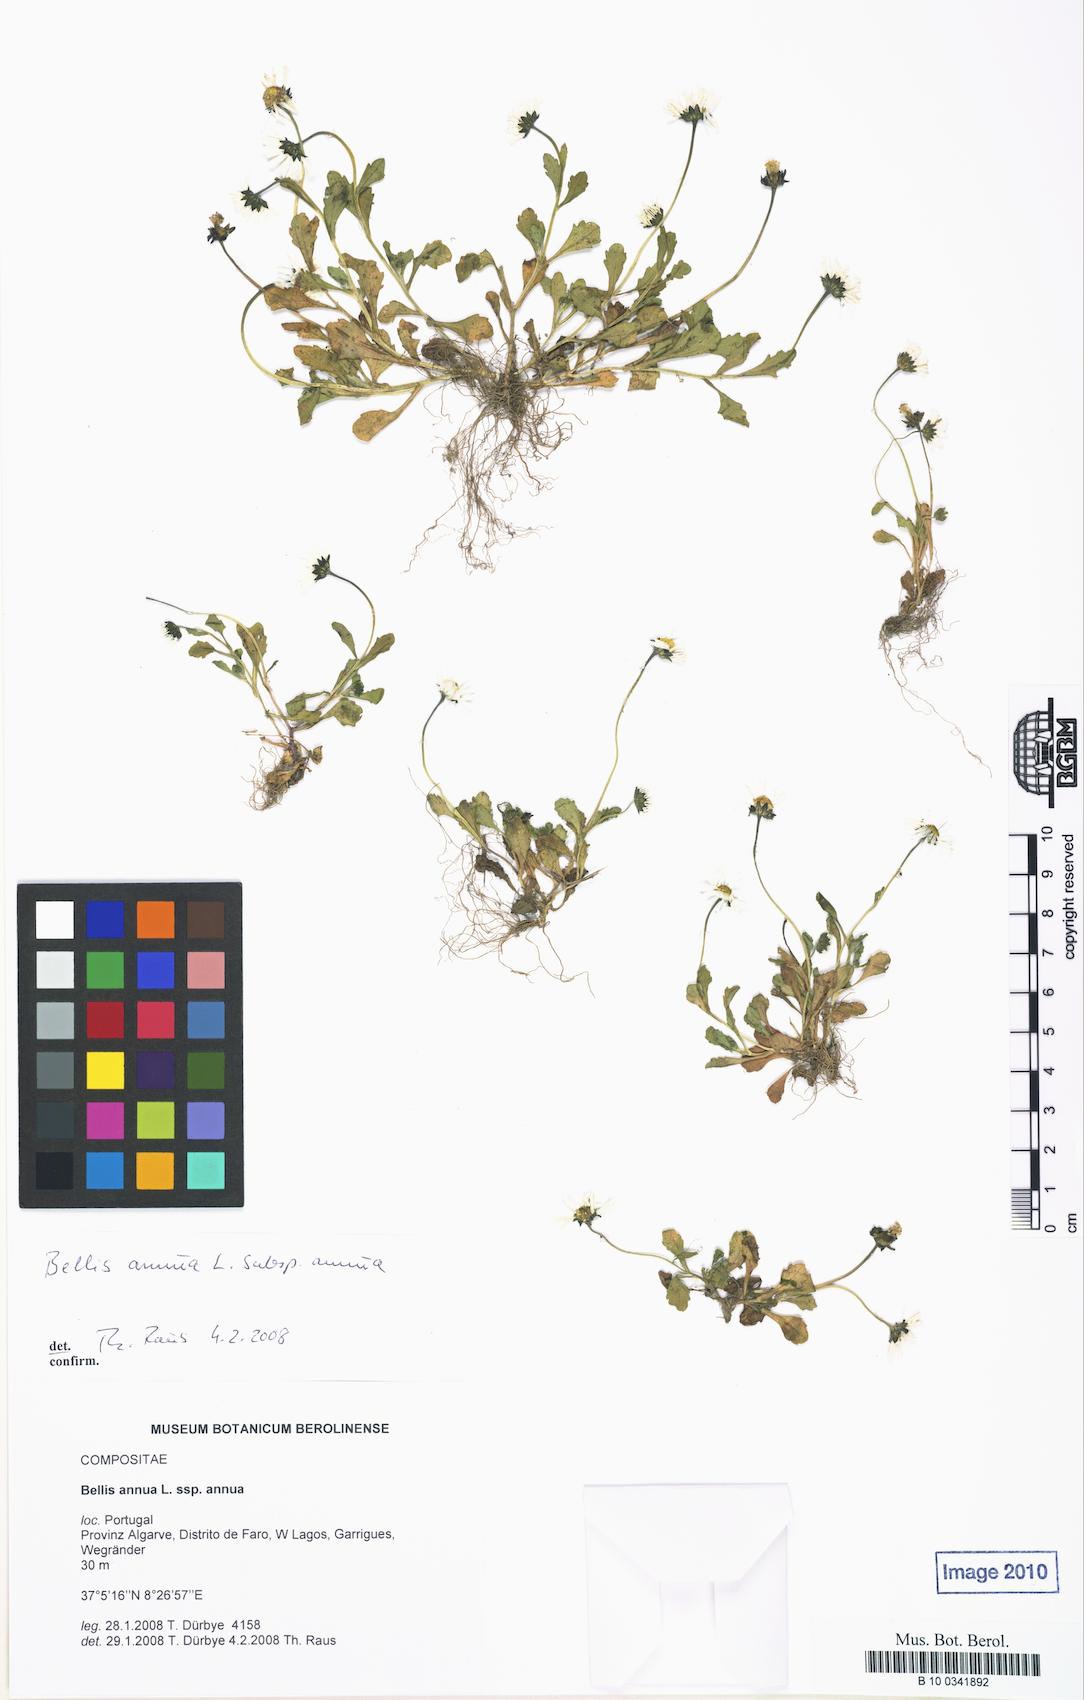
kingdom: Plantae
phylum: Tracheophyta
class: Magnoliopsida
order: Asterales
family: Asteraceae
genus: Bellis
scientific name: Bellis annua
